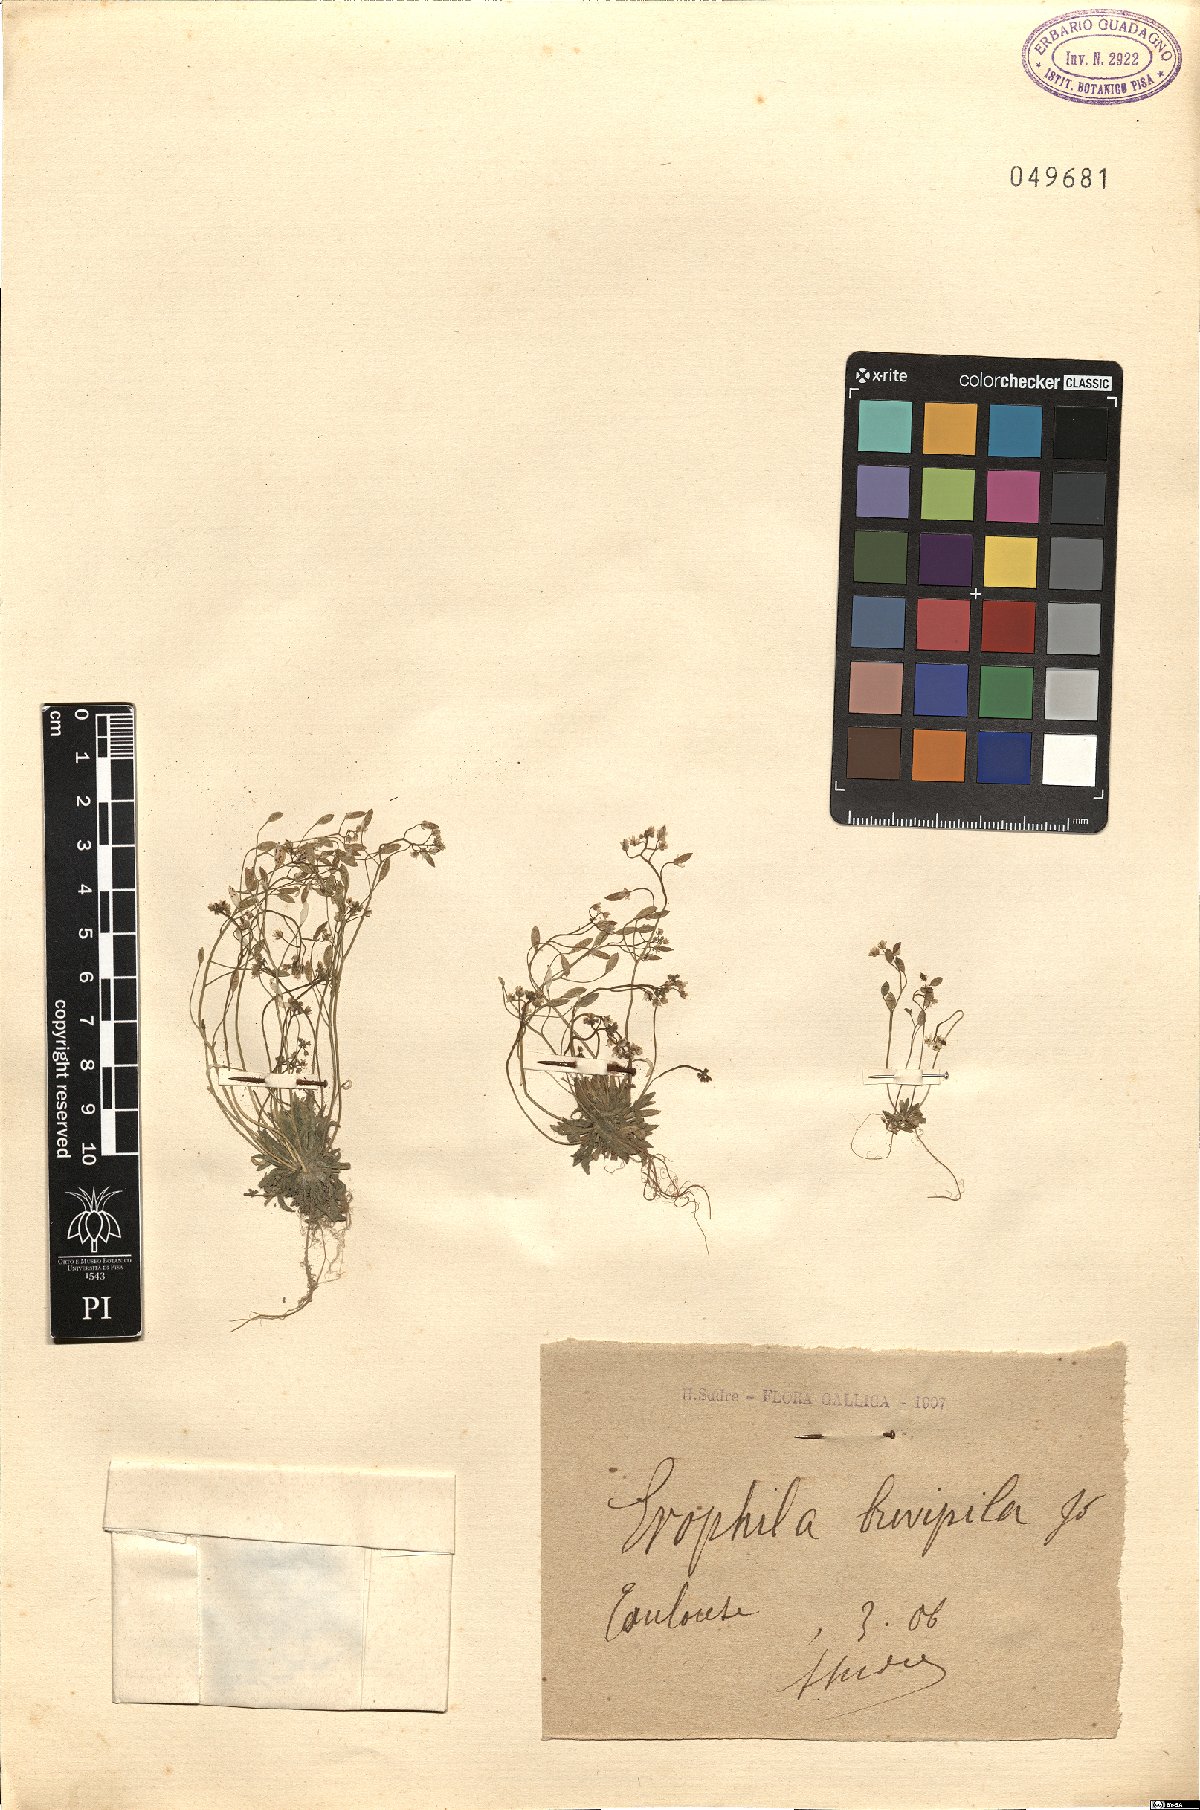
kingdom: Plantae
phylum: Tracheophyta
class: Magnoliopsida
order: Brassicales
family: Brassicaceae
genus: Draba
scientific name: Draba verna
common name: Spring draba
